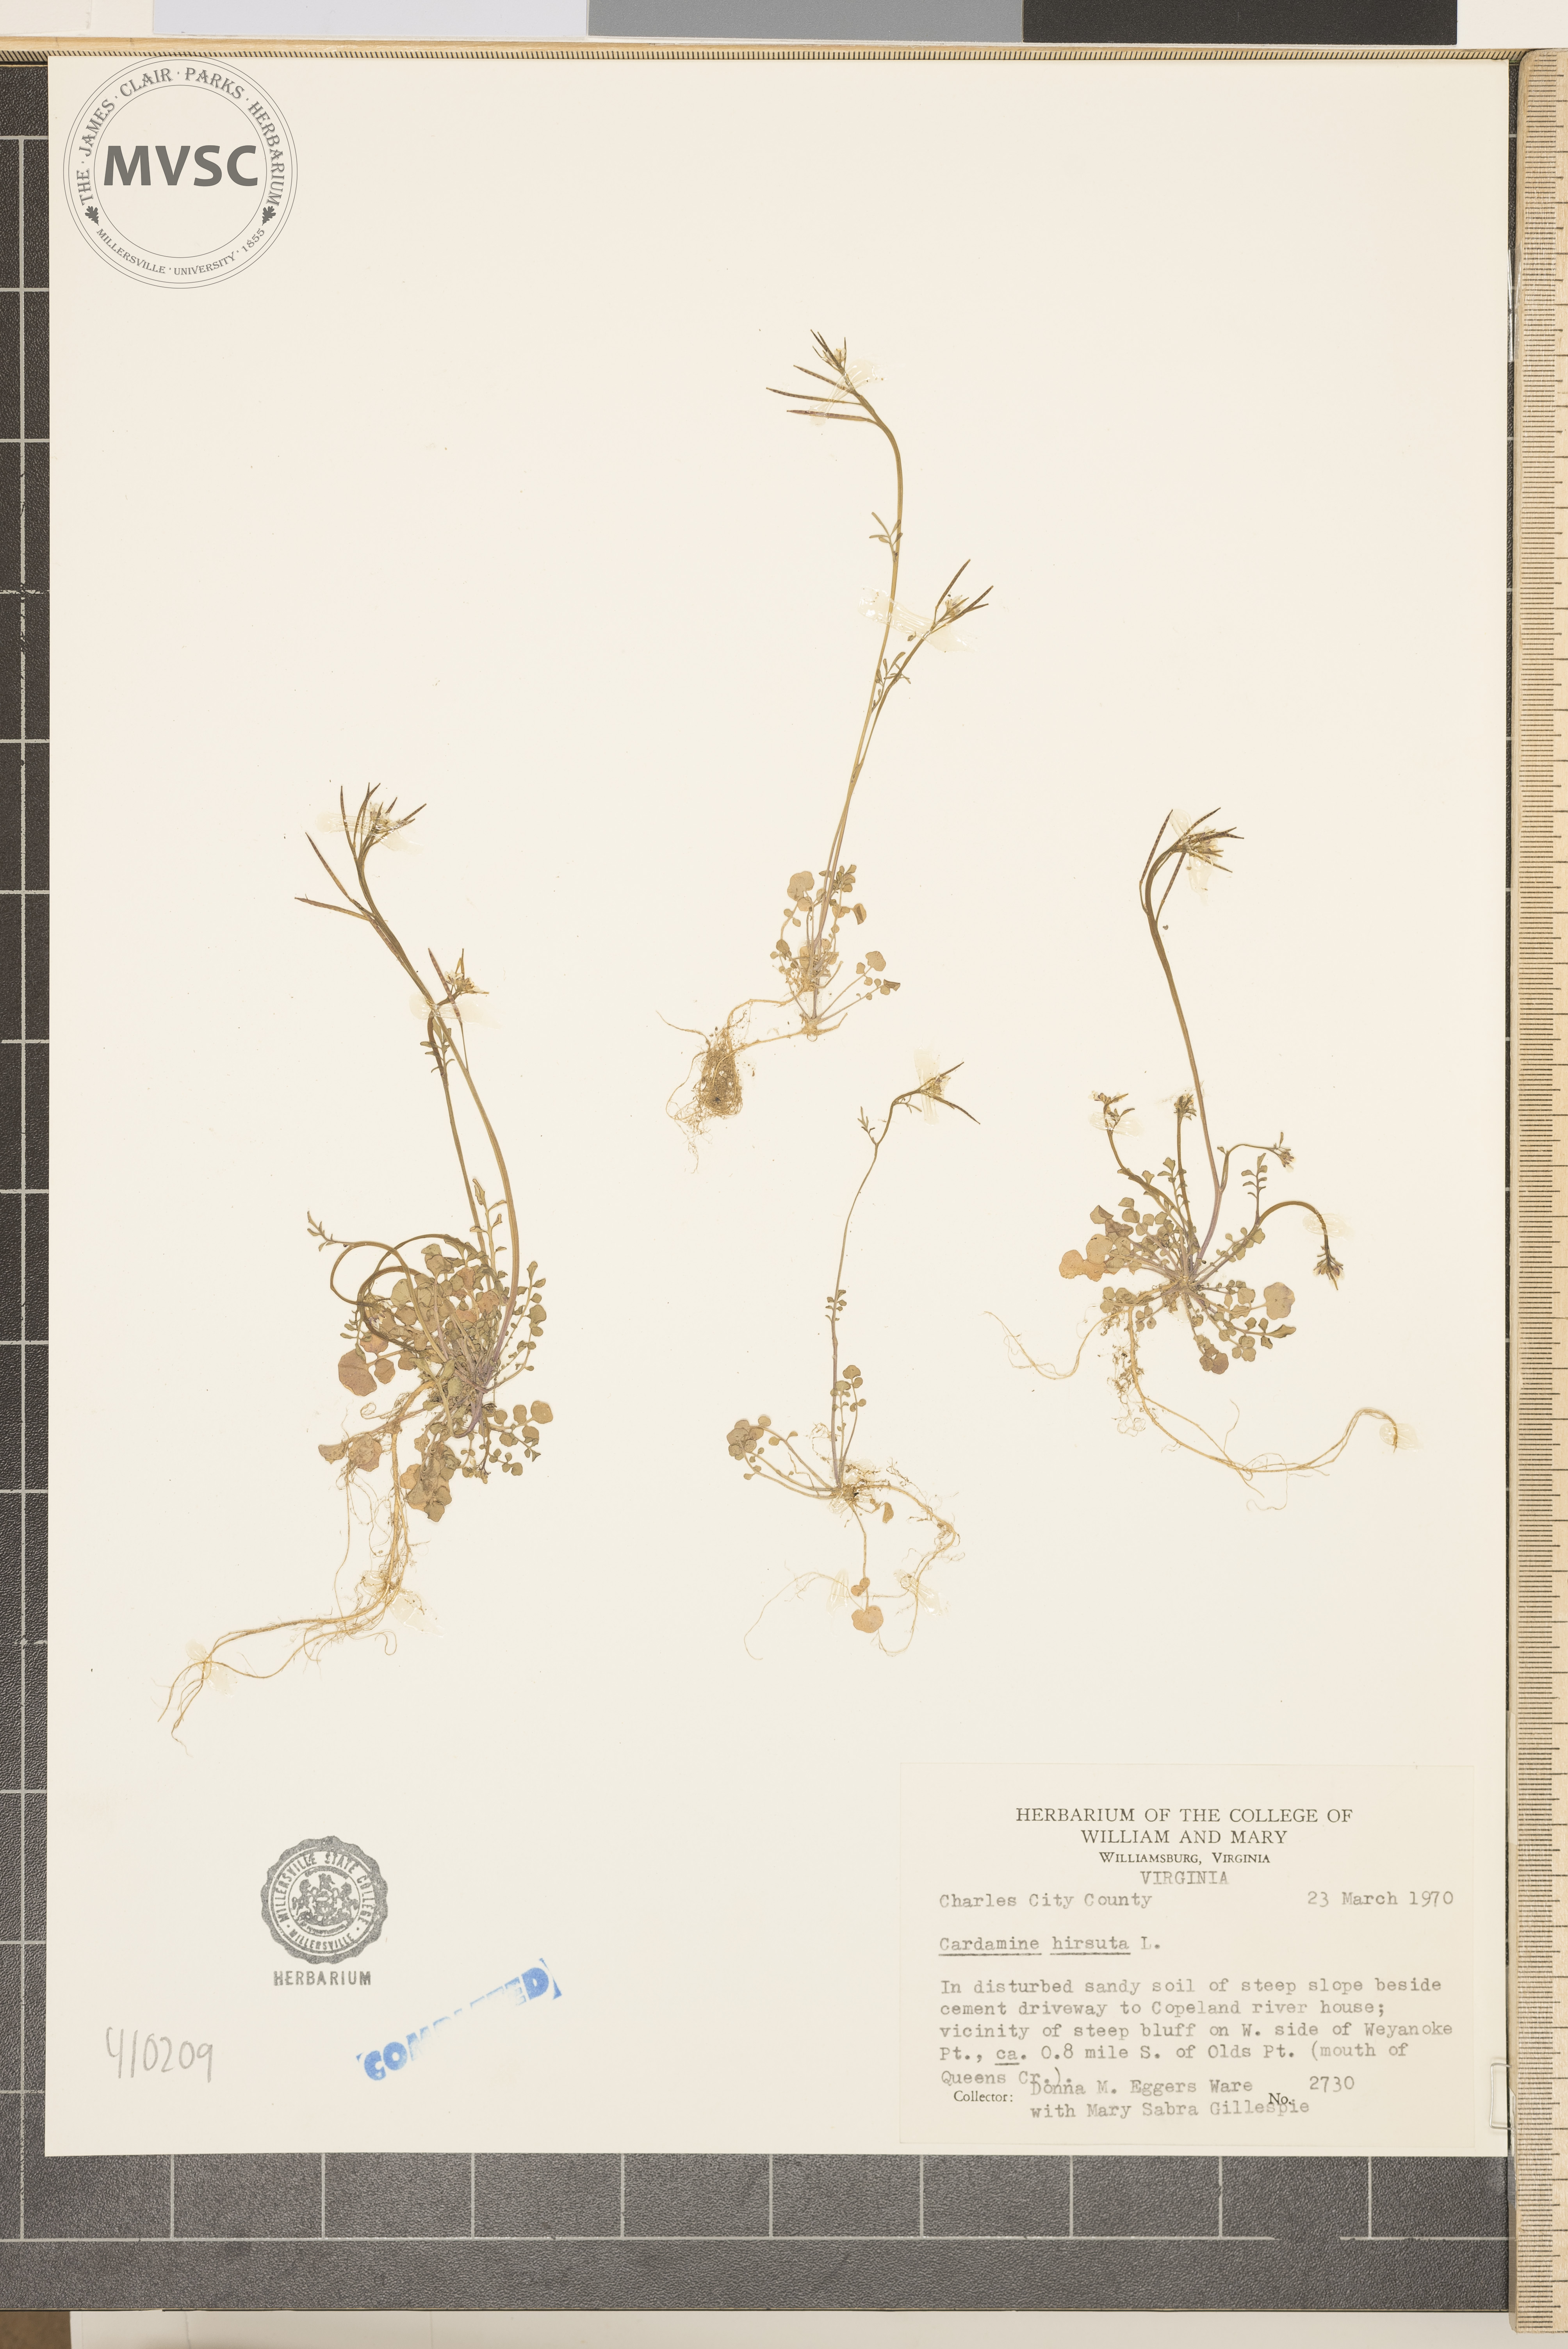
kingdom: Plantae
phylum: Tracheophyta
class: Magnoliopsida
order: Brassicales
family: Brassicaceae
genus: Cardamine
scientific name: Cardamine hirsuta
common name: Hairy bittercress
